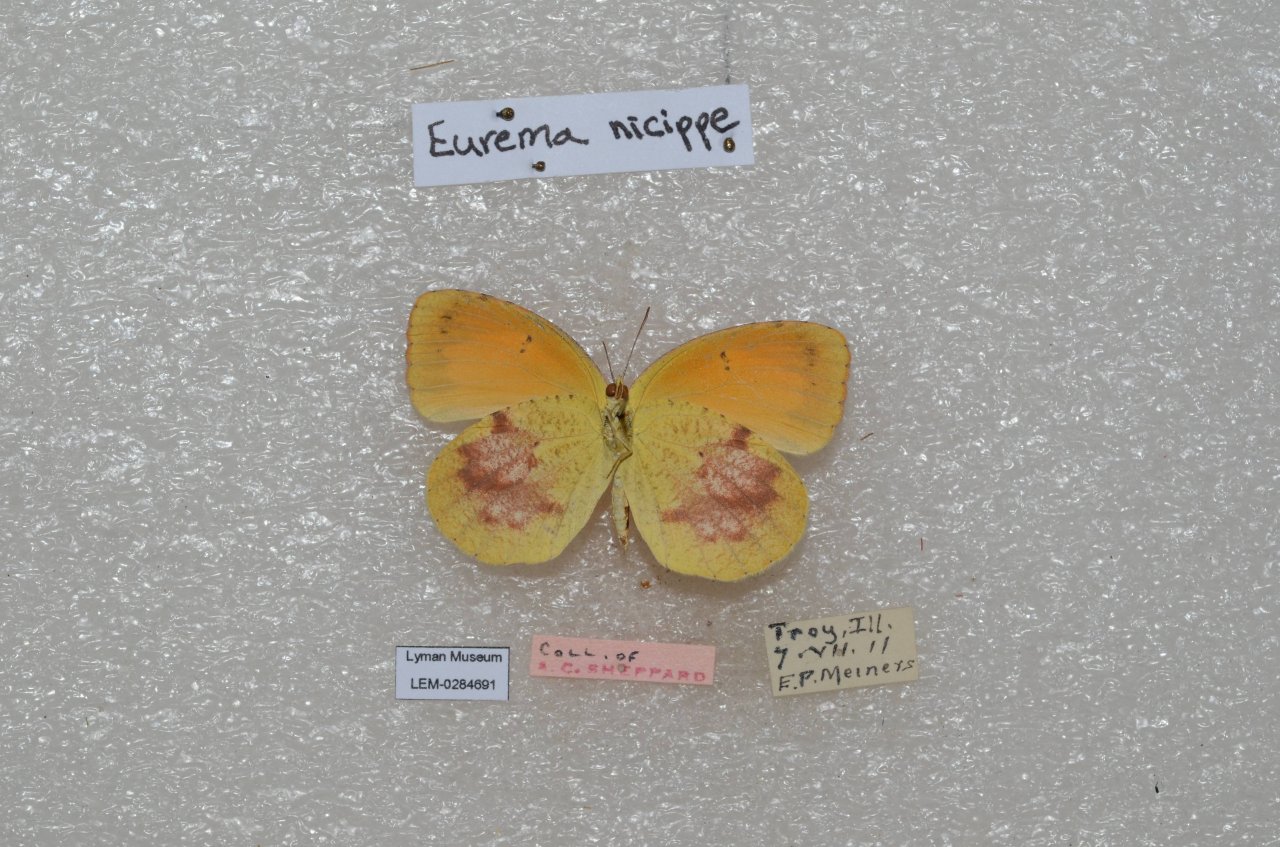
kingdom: Animalia
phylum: Arthropoda
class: Insecta
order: Lepidoptera
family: Pieridae
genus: Abaeis
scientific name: Abaeis nicippe
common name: Sleepy Orange
